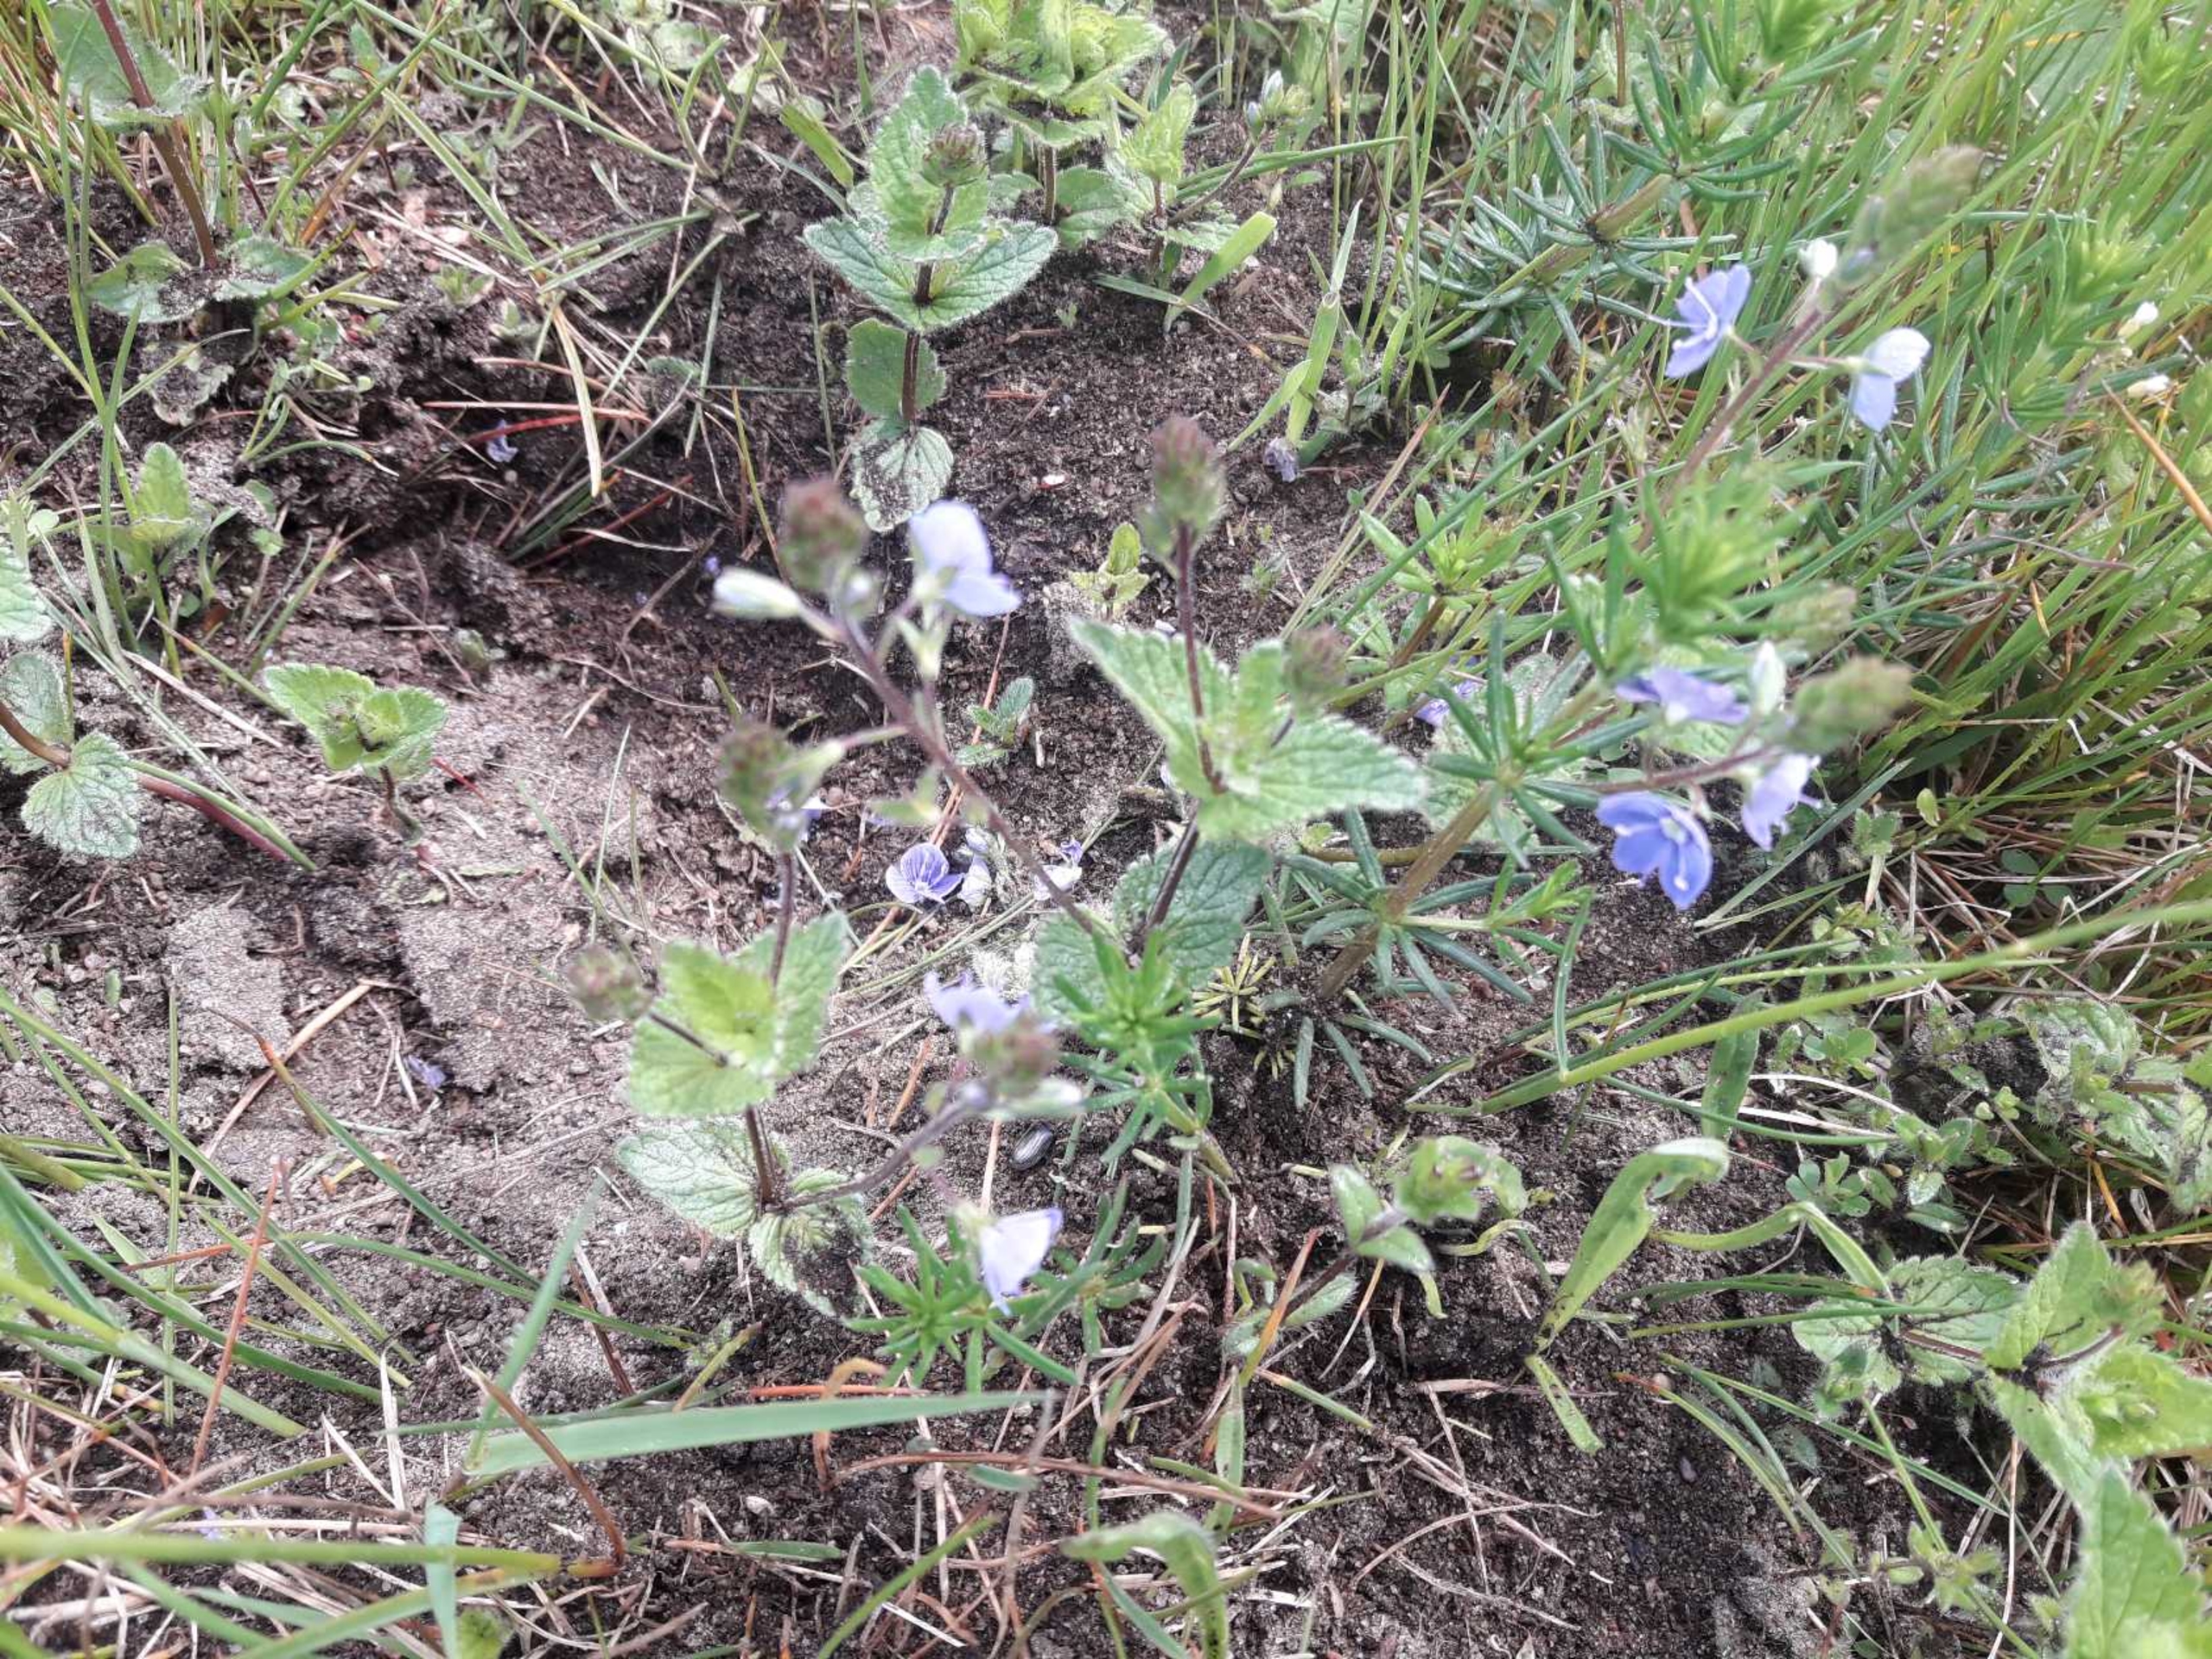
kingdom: Plantae
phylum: Tracheophyta
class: Magnoliopsida
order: Lamiales
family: Plantaginaceae
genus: Veronica
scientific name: Veronica chamaedrys
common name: Tveskægget ærenpris
